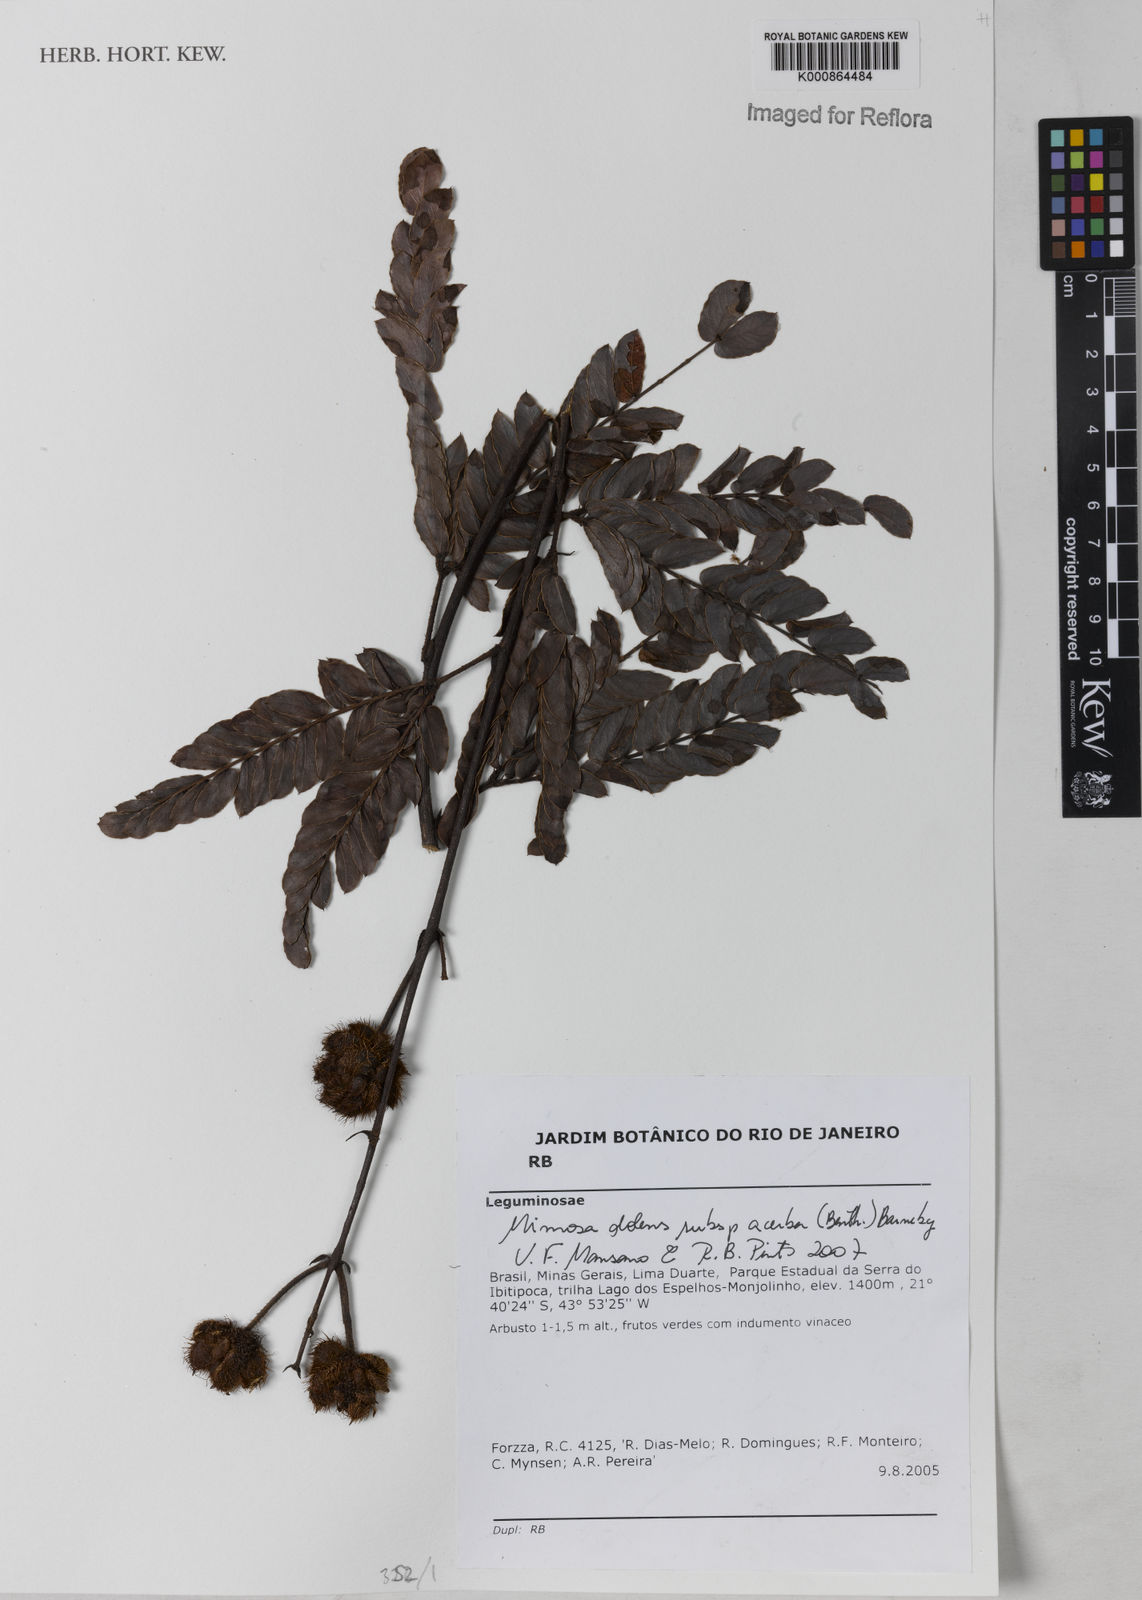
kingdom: Plantae
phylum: Tracheophyta
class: Magnoliopsida
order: Fabales
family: Fabaceae
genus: Mimosa
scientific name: Mimosa dolens
